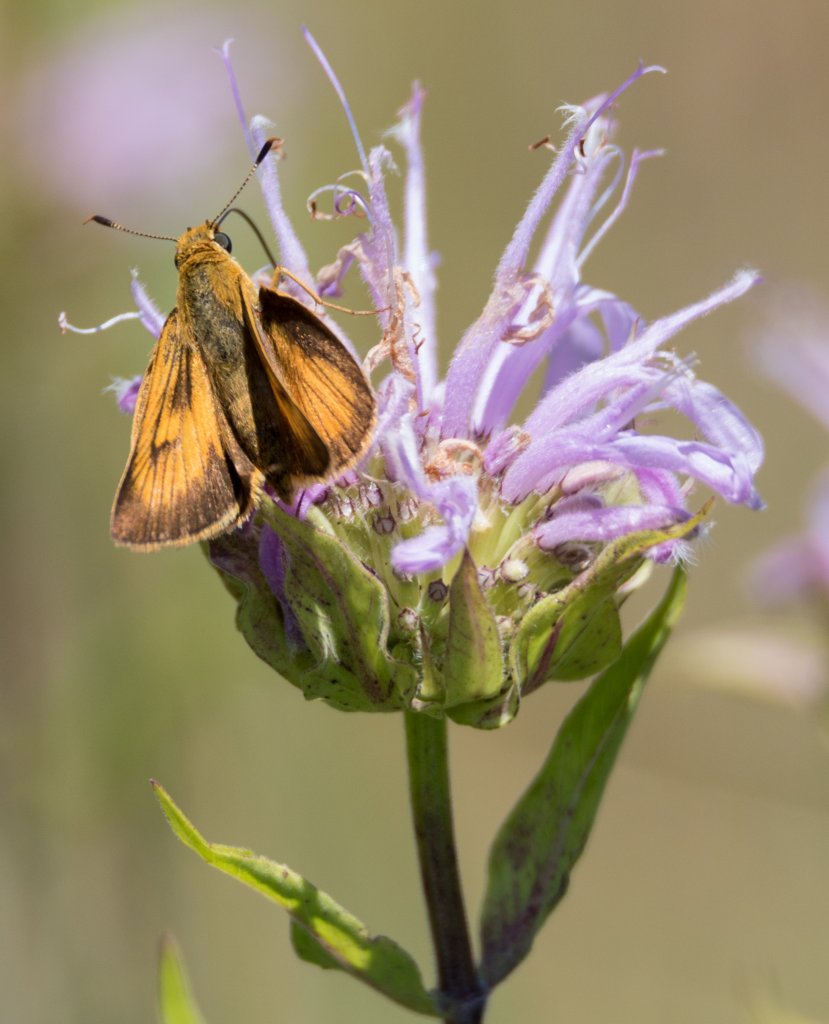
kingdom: Animalia
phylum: Arthropoda
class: Insecta
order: Lepidoptera
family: Hesperiidae
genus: Atrytone
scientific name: Atrytone delaware
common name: Delaware Skipper
